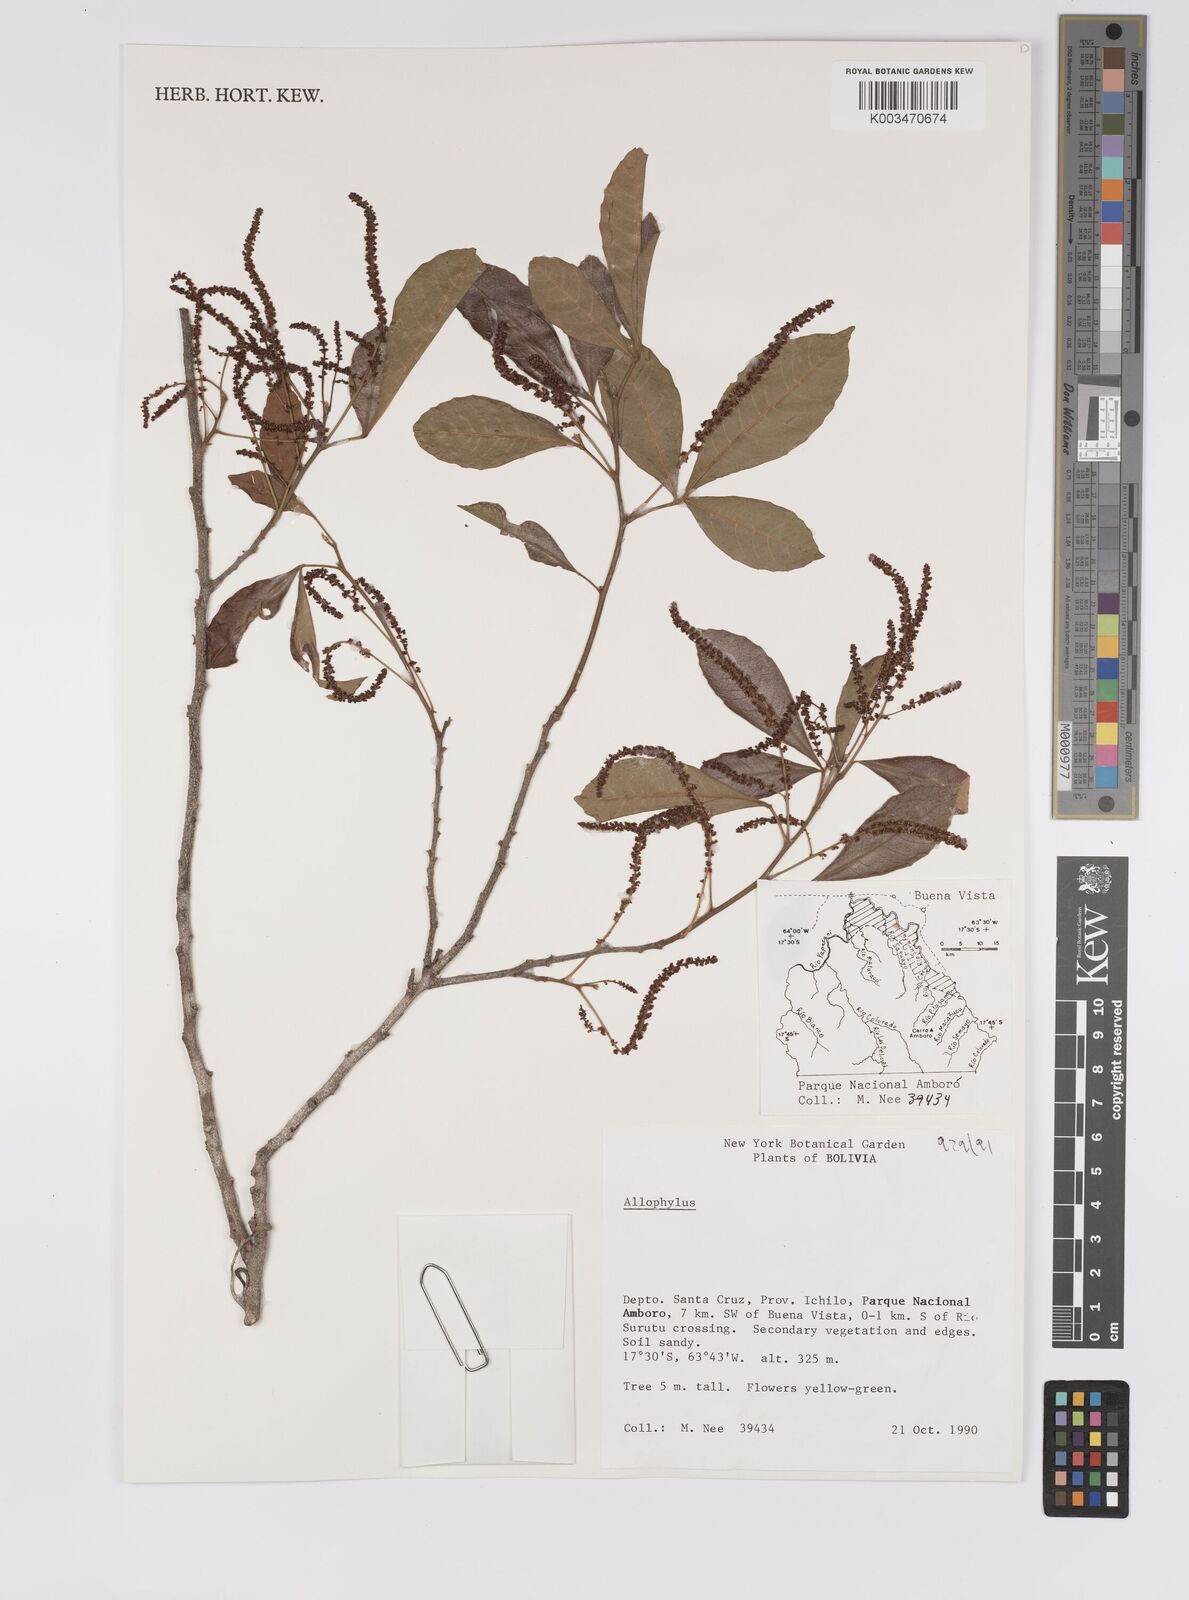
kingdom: Plantae
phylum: Tracheophyta
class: Magnoliopsida
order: Sapindales
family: Sapindaceae
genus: Allophylus
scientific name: Allophylus
